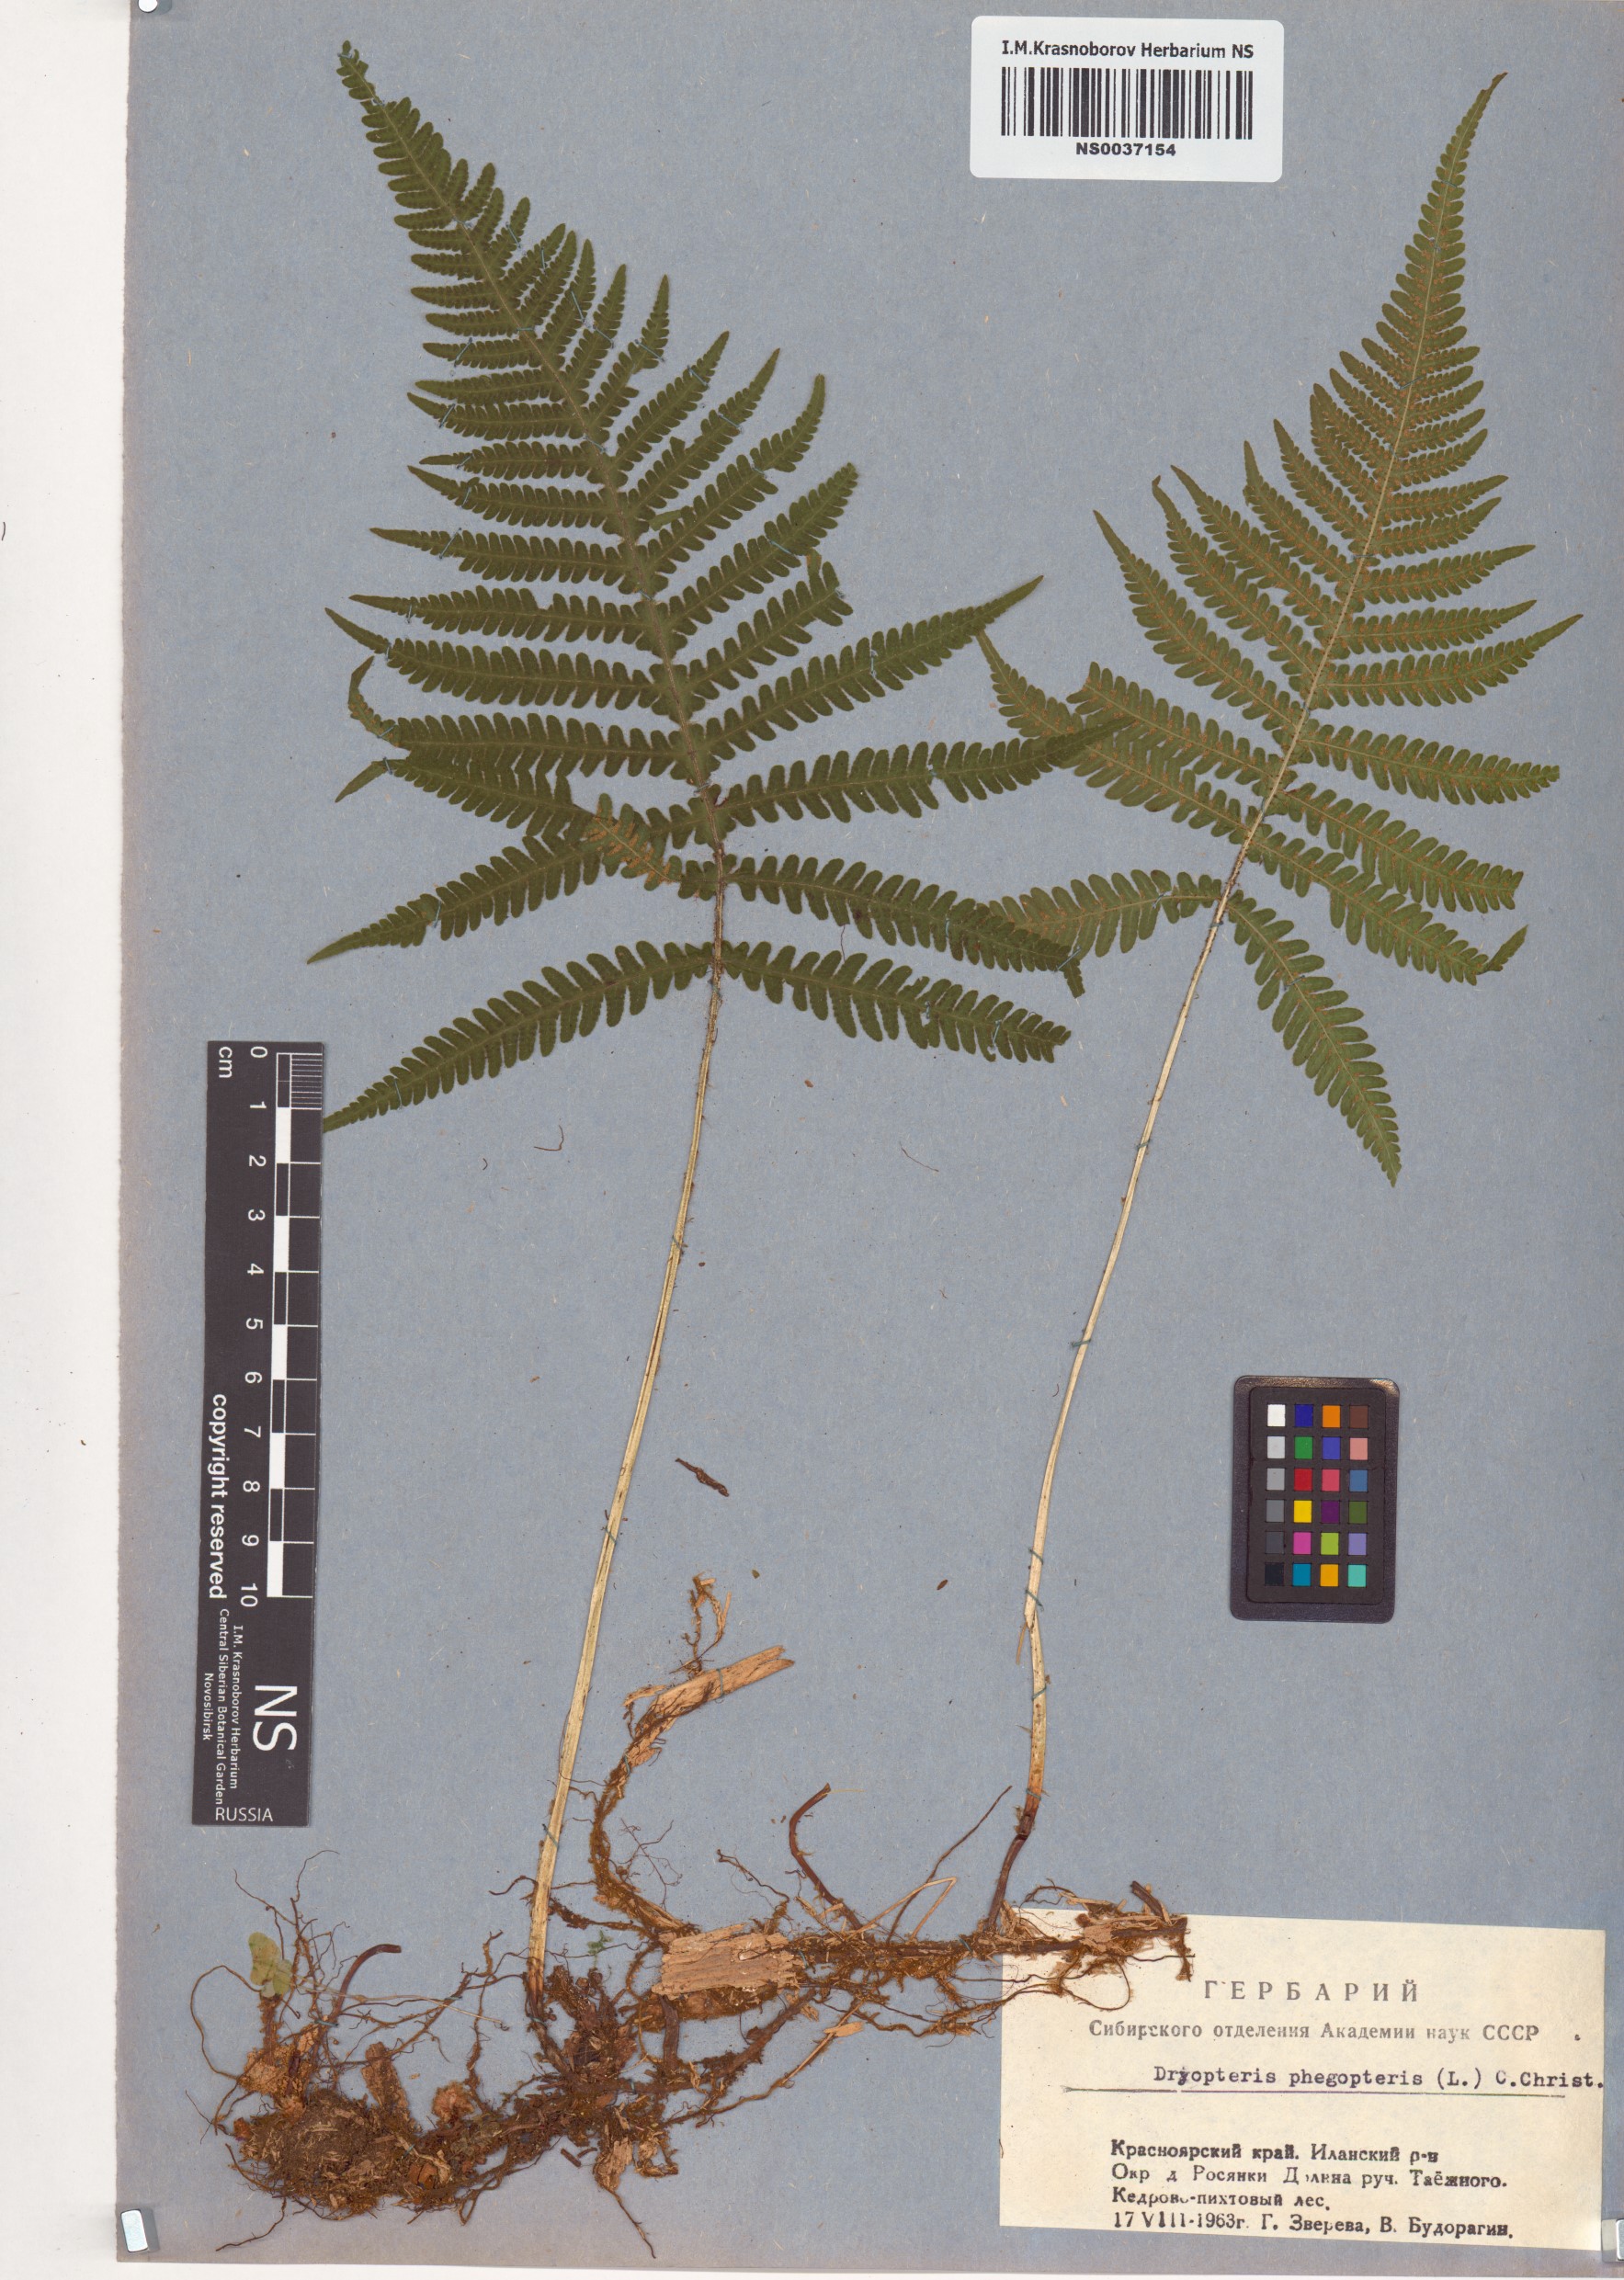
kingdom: Plantae
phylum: Tracheophyta
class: Polypodiopsida
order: Polypodiales
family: Thelypteridaceae
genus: Phegopteris
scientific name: Phegopteris connectilis
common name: Beech fern
